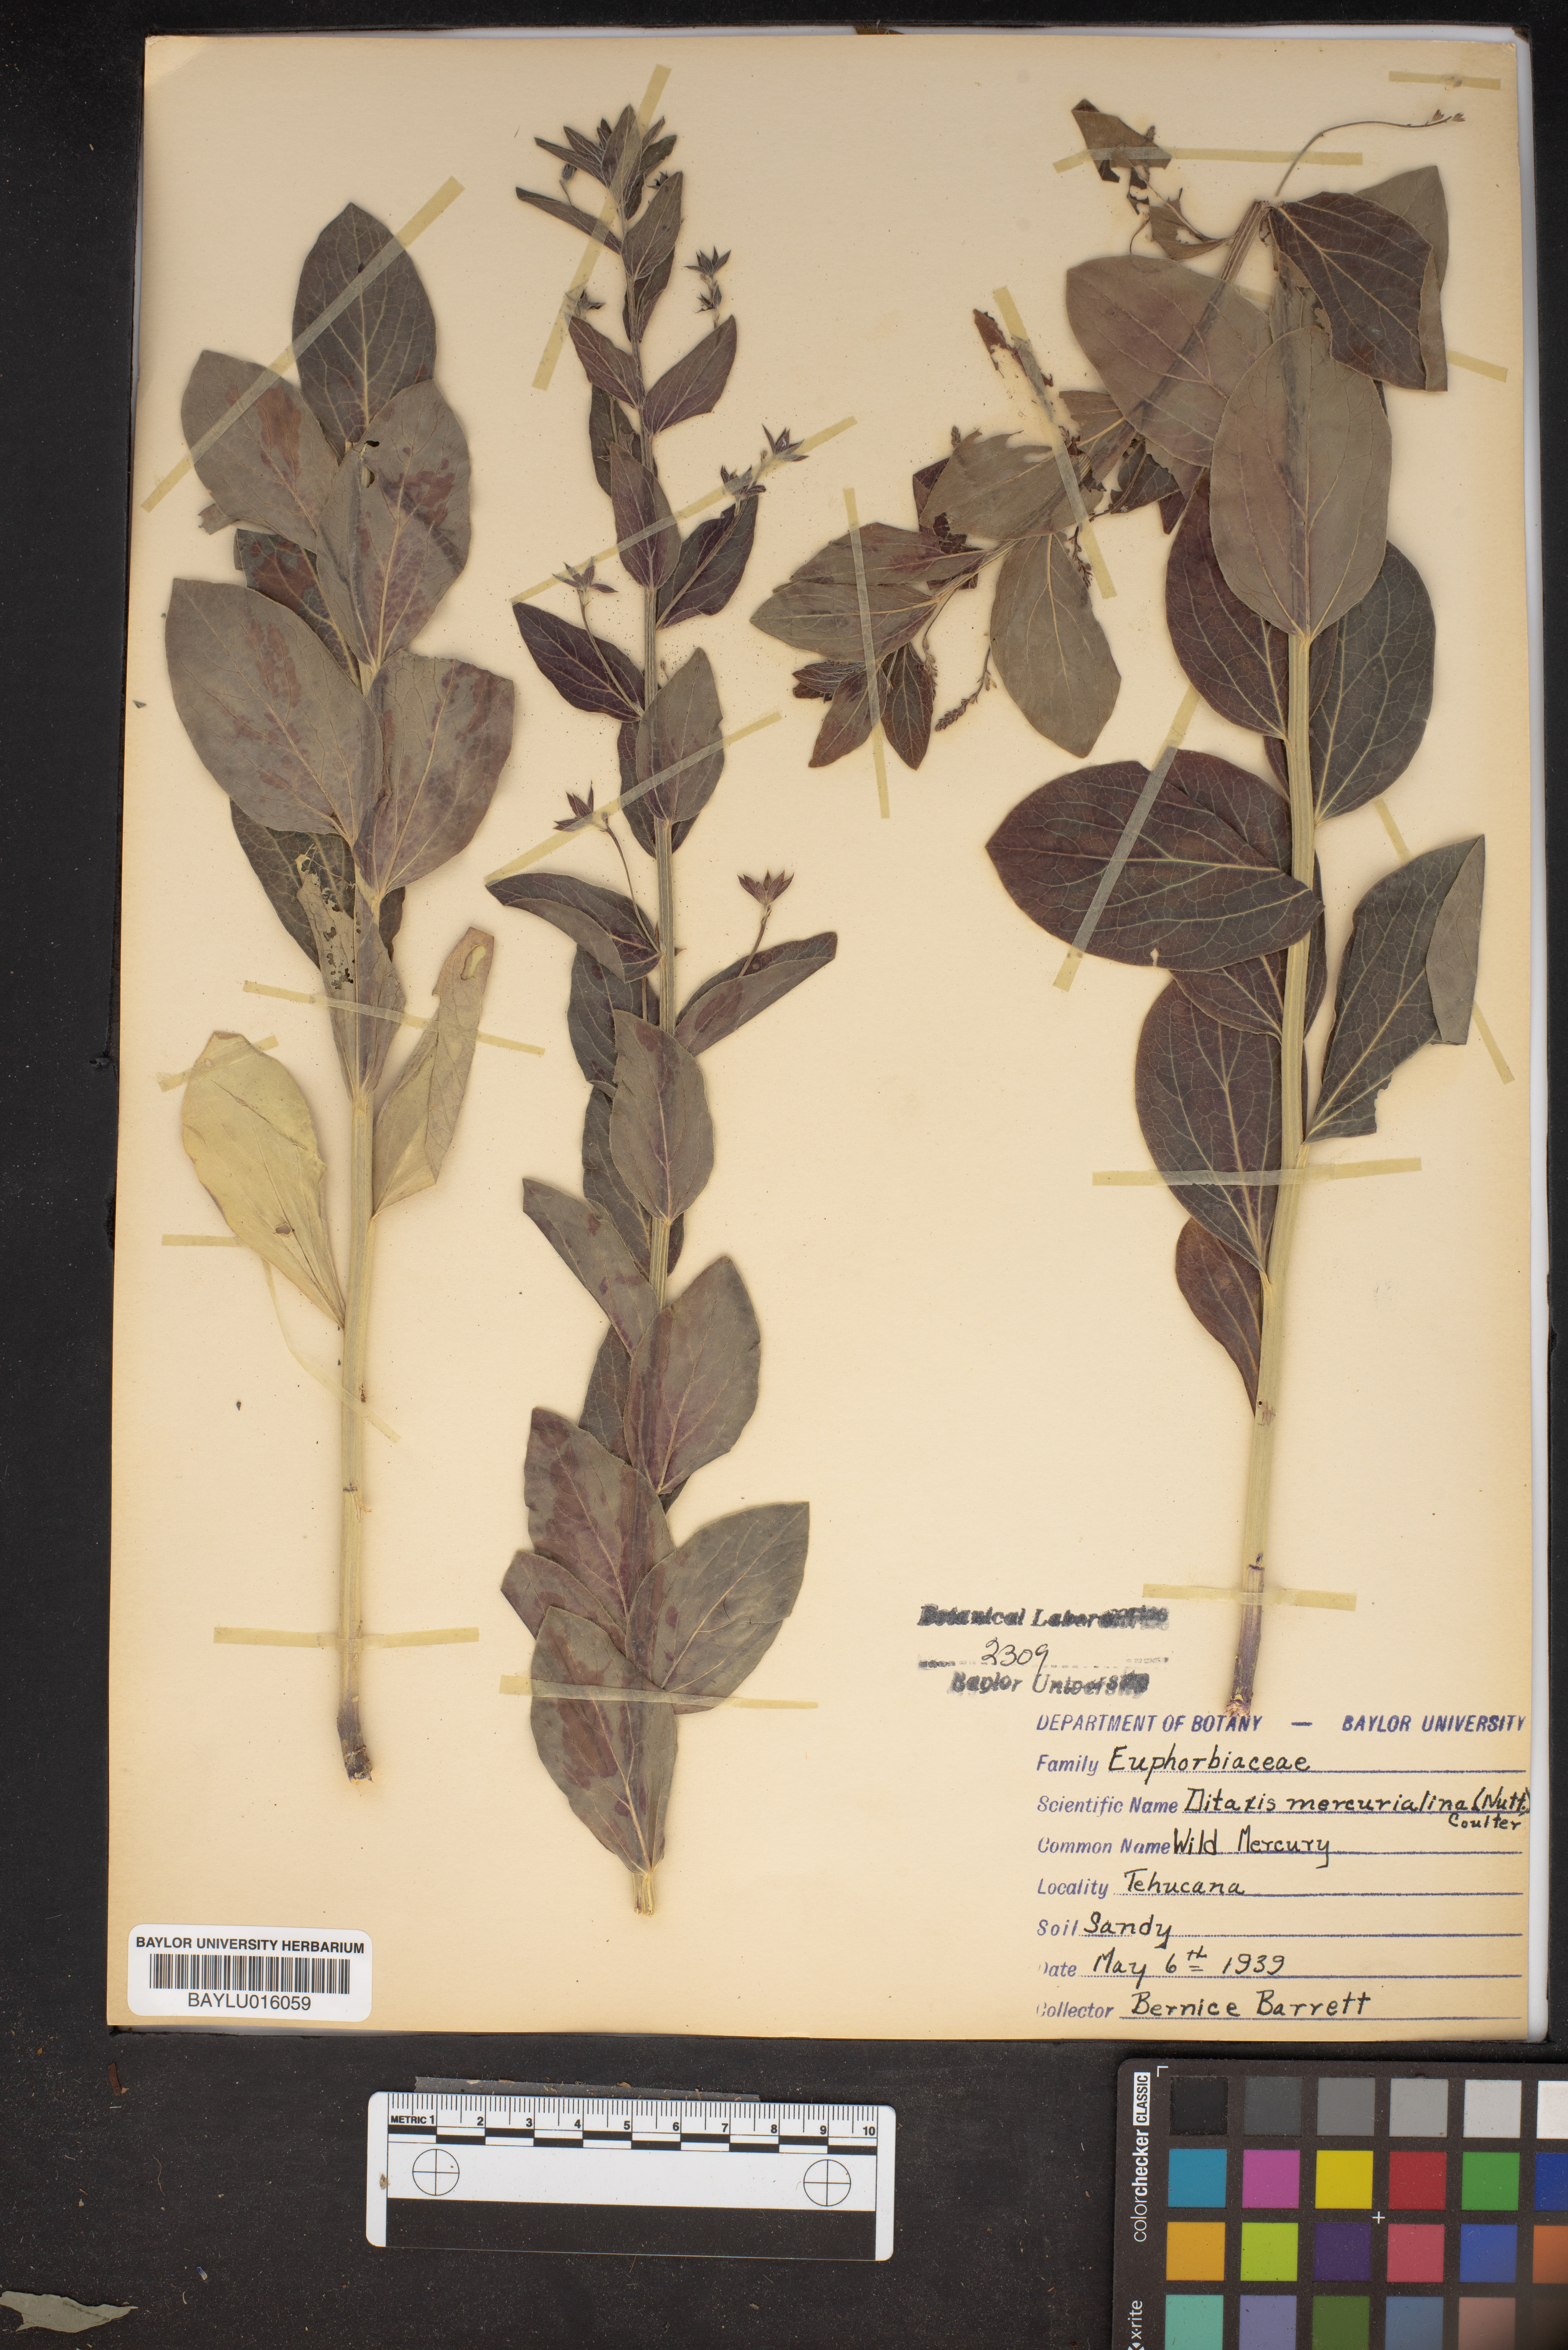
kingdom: Plantae
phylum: Tracheophyta
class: Magnoliopsida
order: Malpighiales
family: Euphorbiaceae
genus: Ditaxis
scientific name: Ditaxis mercurialina
